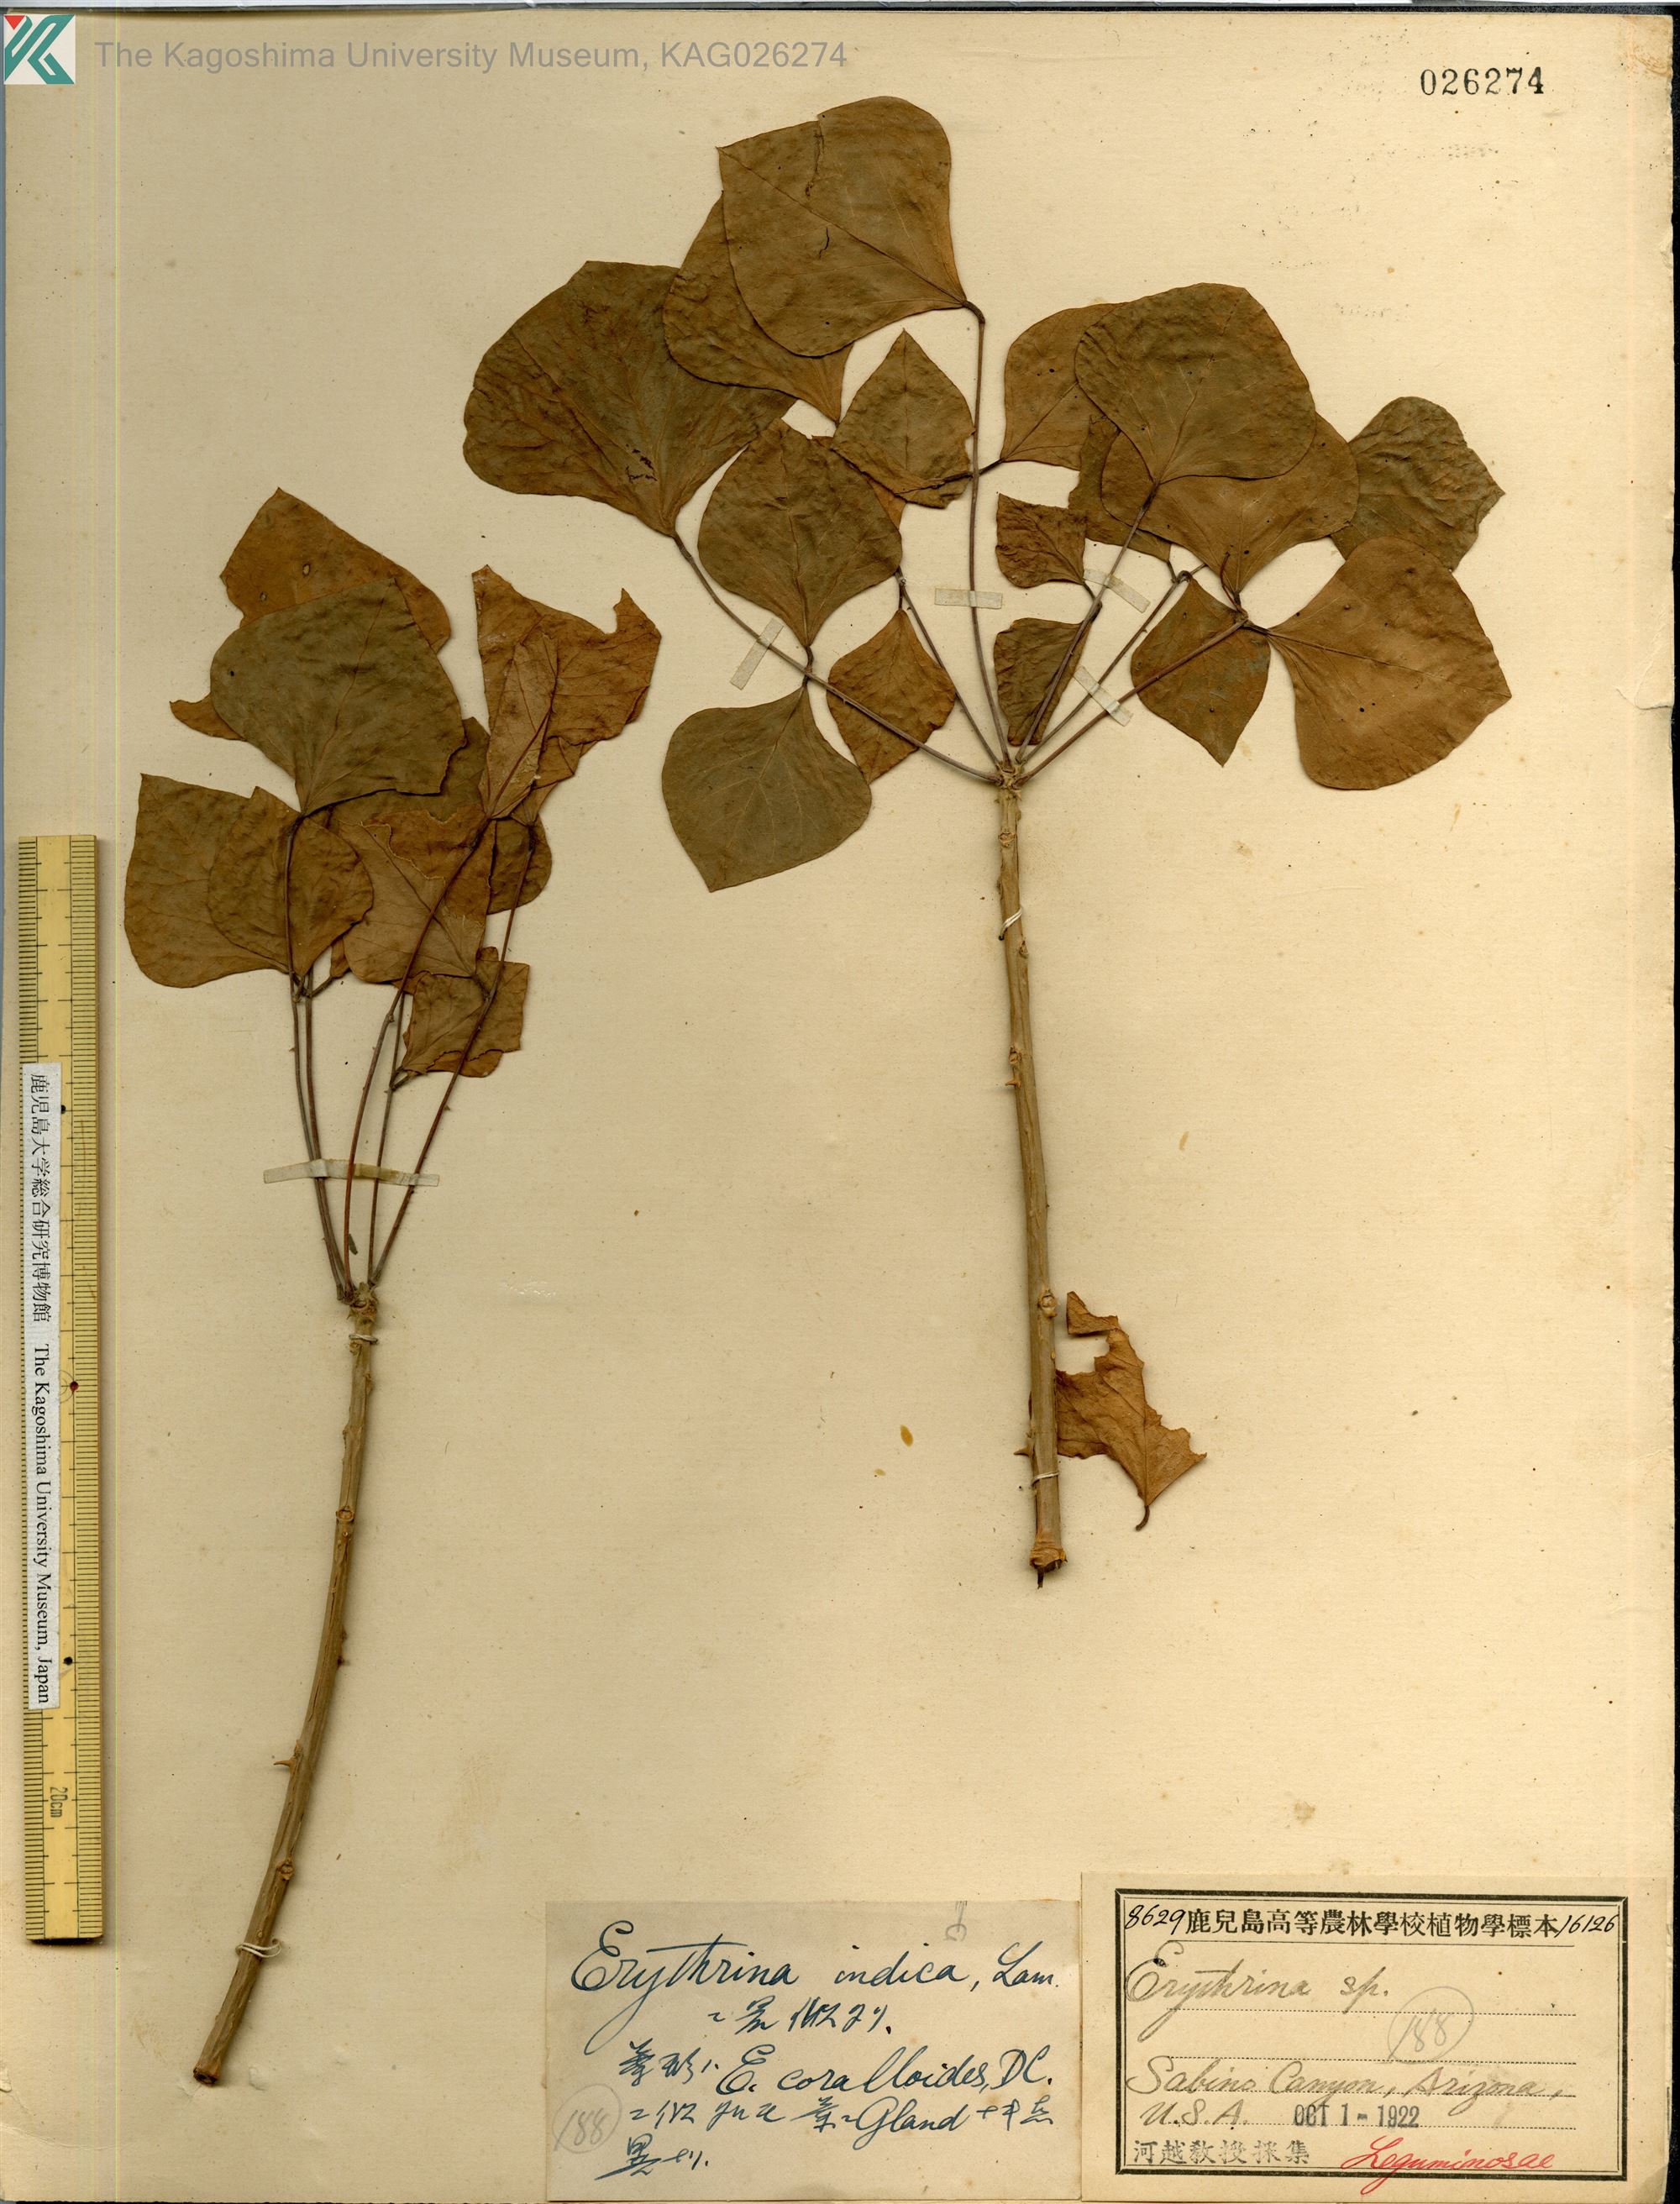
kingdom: Plantae
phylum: Tracheophyta
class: Magnoliopsida
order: Fabales
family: Fabaceae
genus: Erythrina
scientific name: Erythrina variegata
